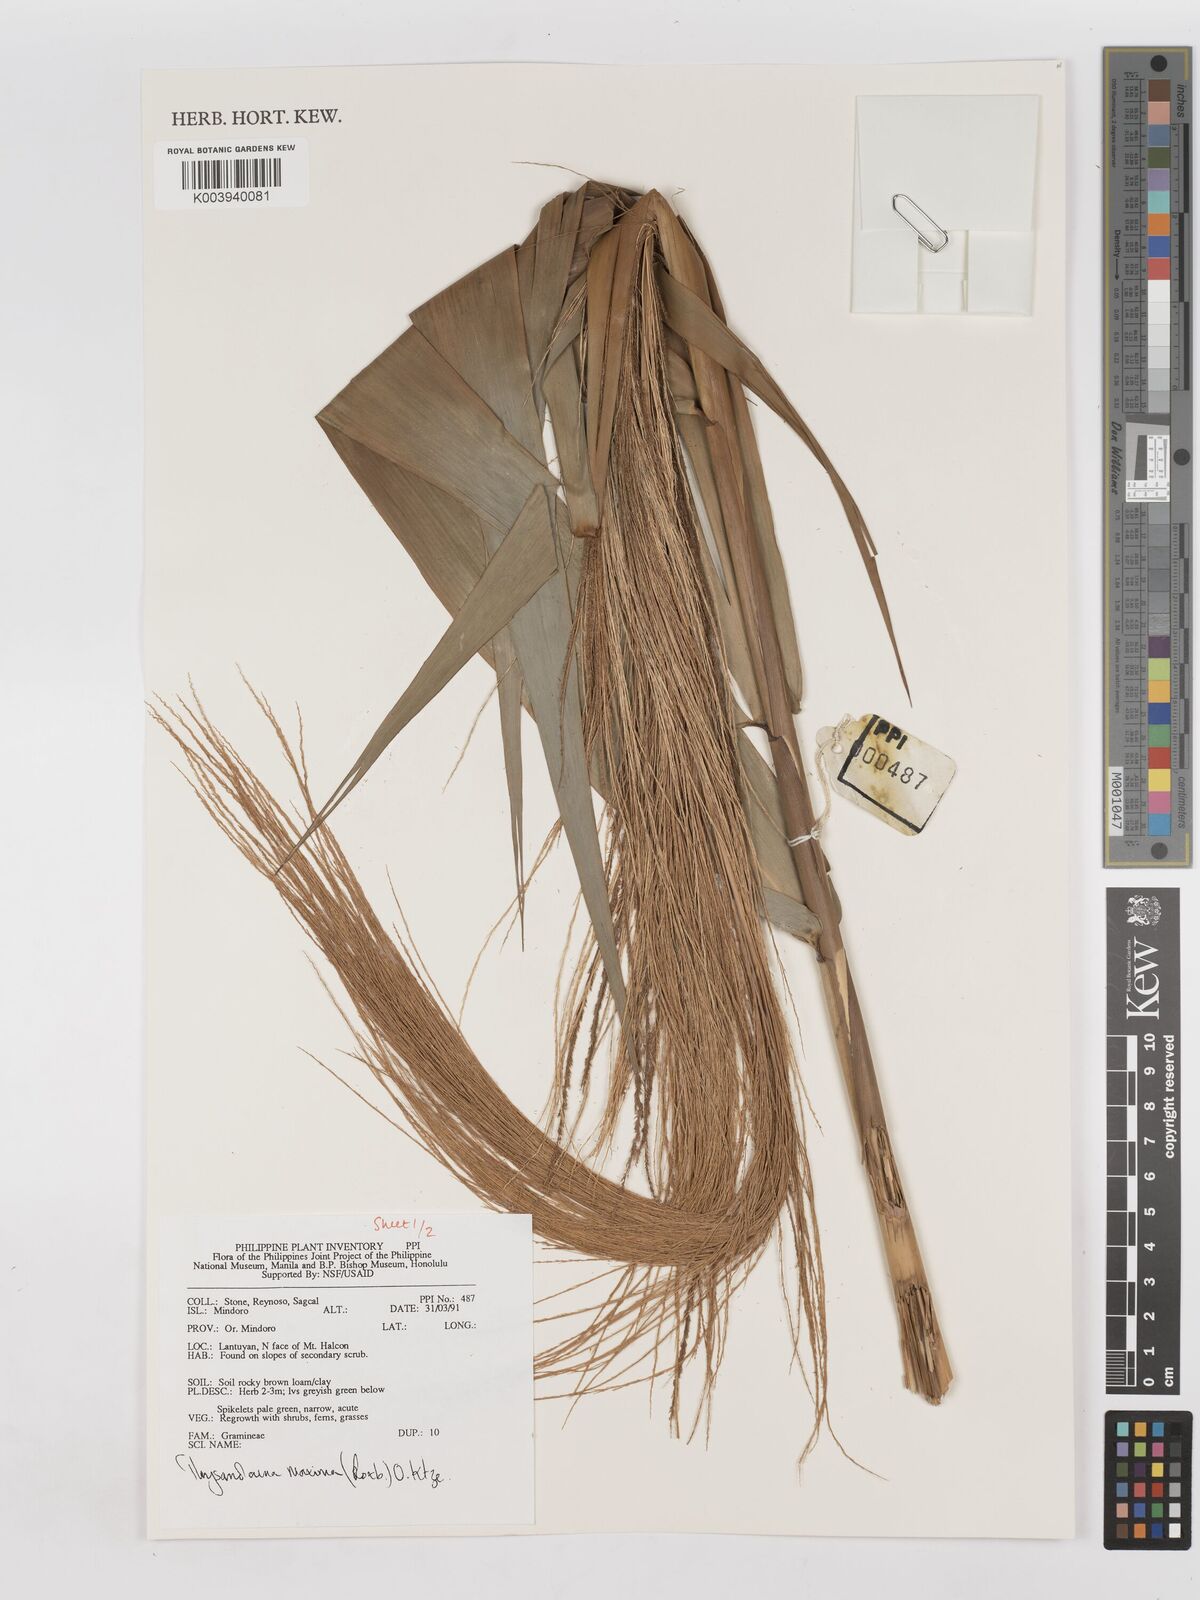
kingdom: Plantae
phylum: Tracheophyta
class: Liliopsida
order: Poales
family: Poaceae
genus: Thysanolaena
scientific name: Thysanolaena latifolia
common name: Tiger grass
